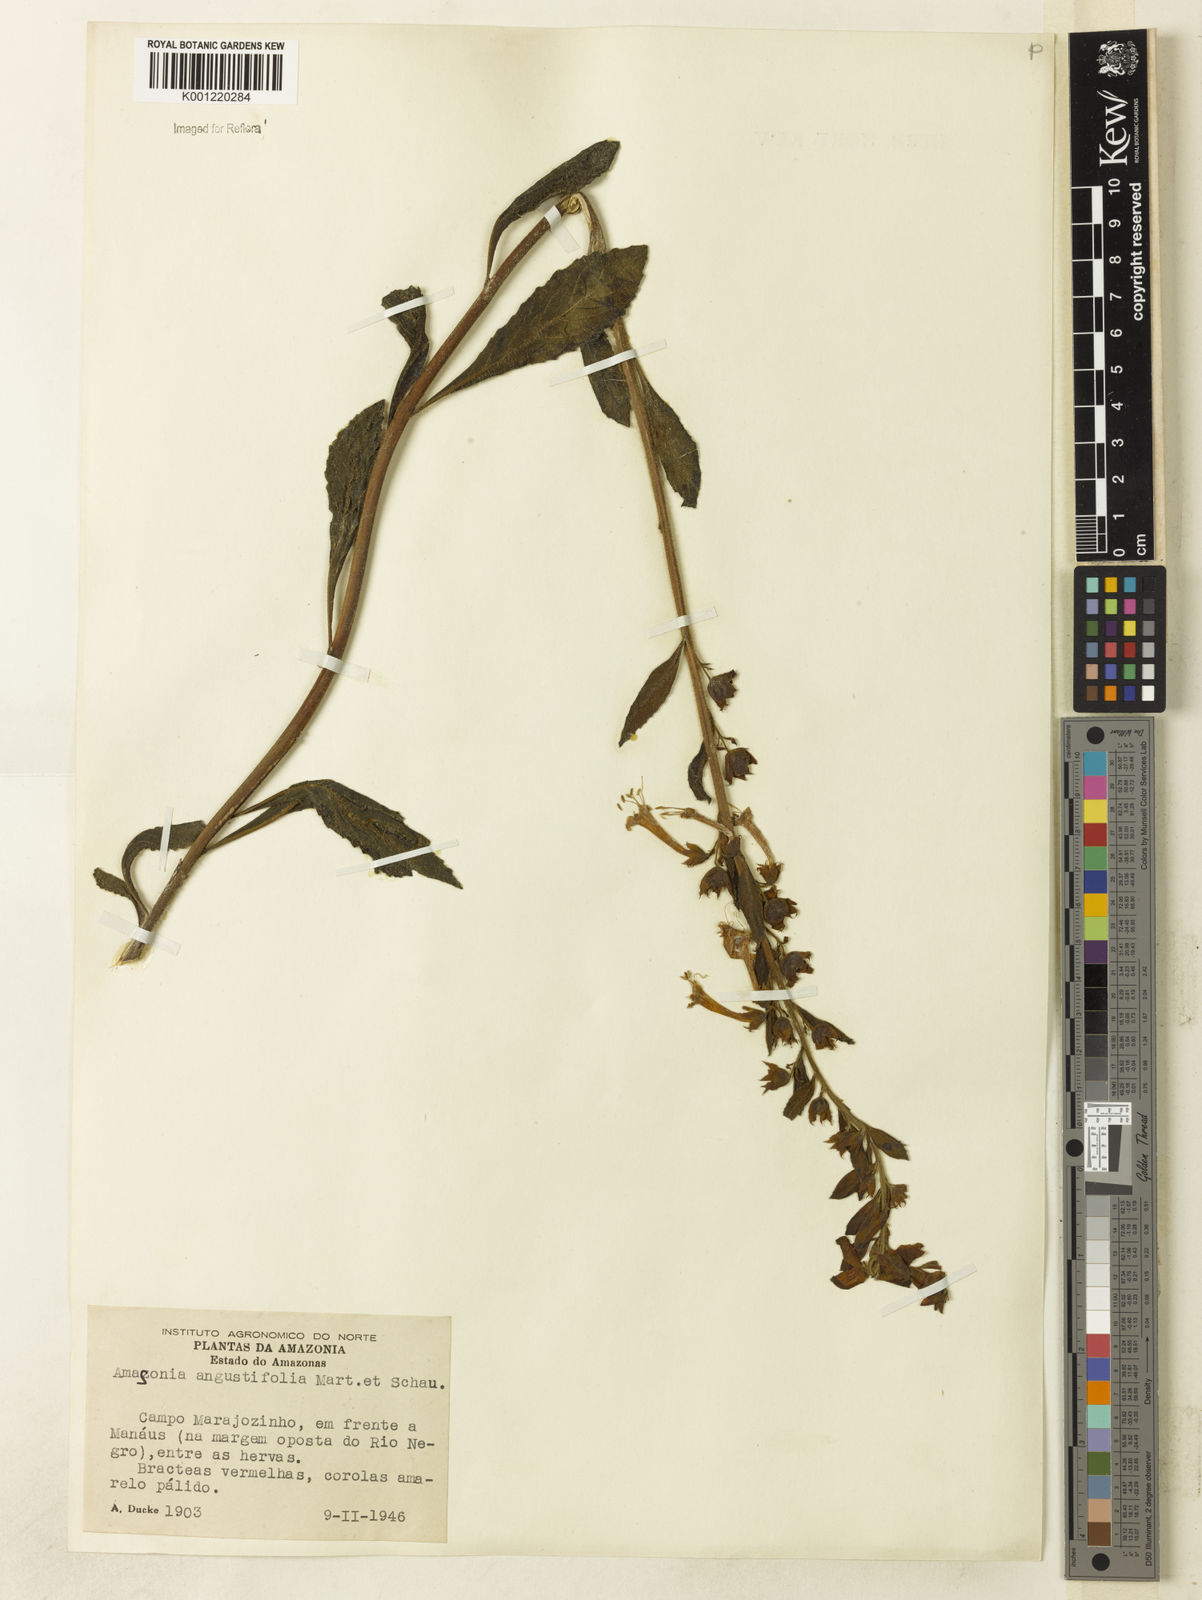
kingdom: Plantae
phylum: Tracheophyta
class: Magnoliopsida
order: Lamiales
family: Lamiaceae
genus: Amasonia
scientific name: Amasonia angustifolia
